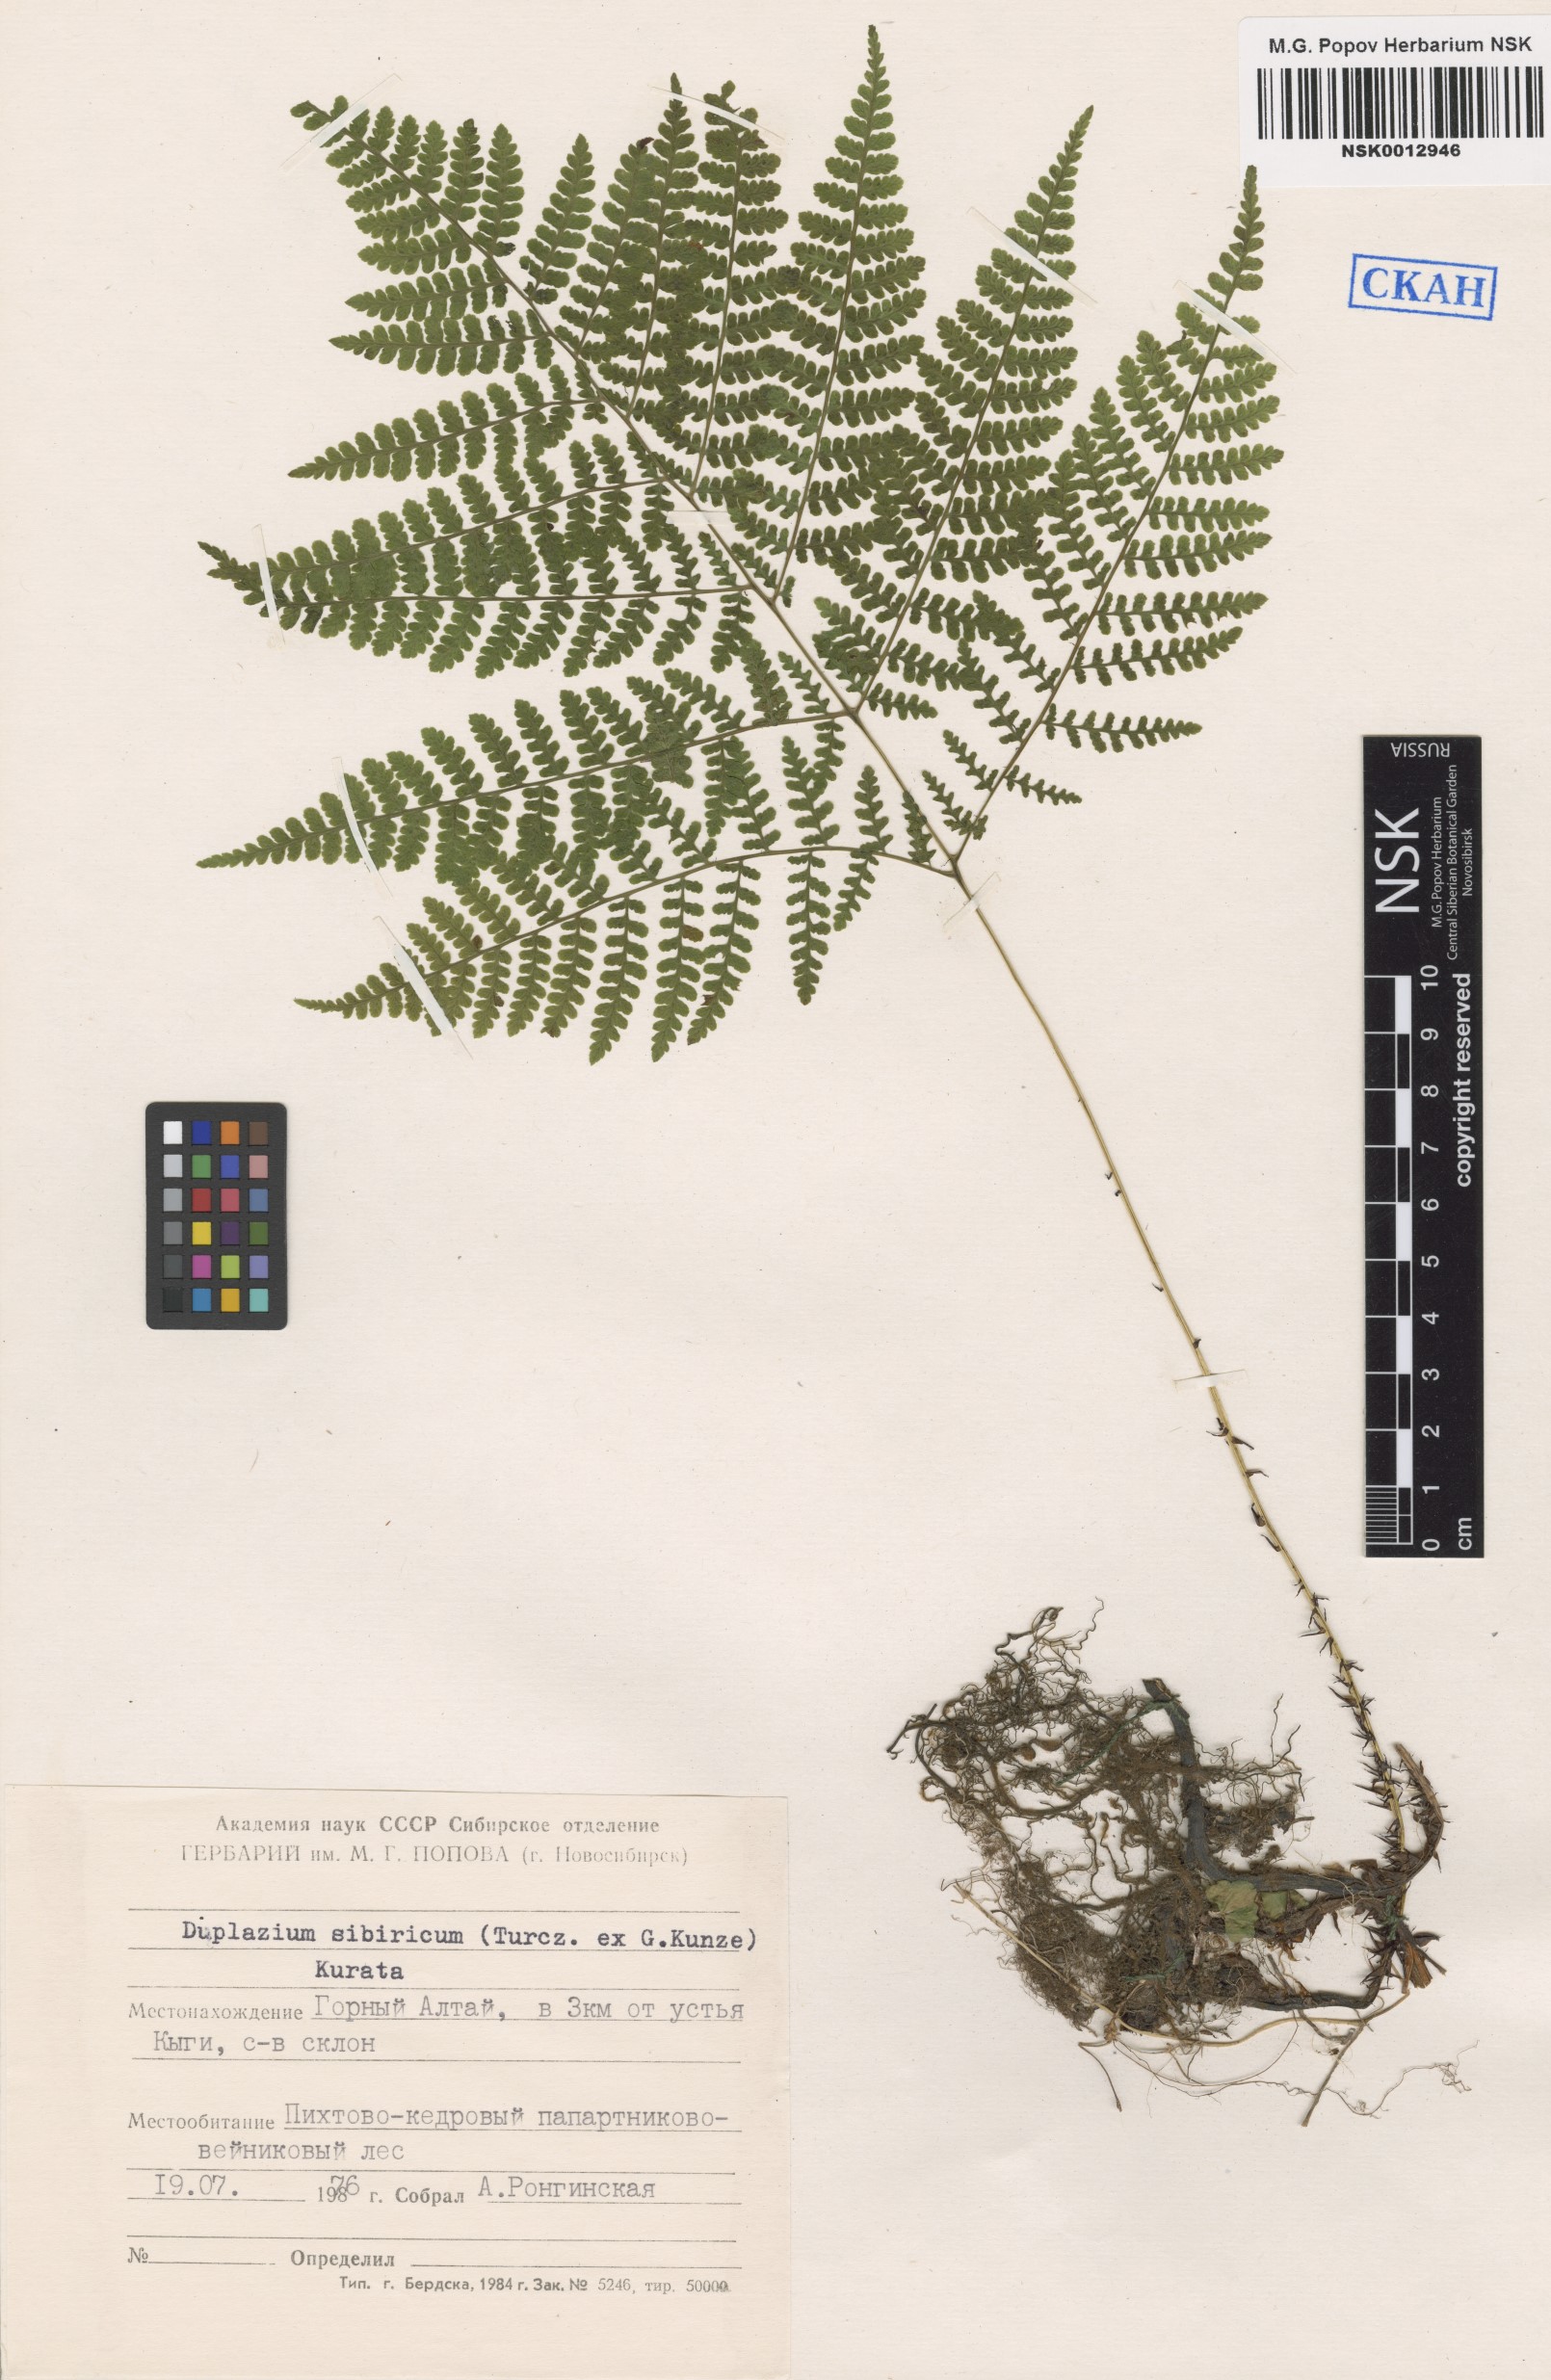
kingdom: Plantae
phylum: Tracheophyta
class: Polypodiopsida
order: Polypodiales
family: Athyriaceae
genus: Diplazium
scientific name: Diplazium sibiricum
